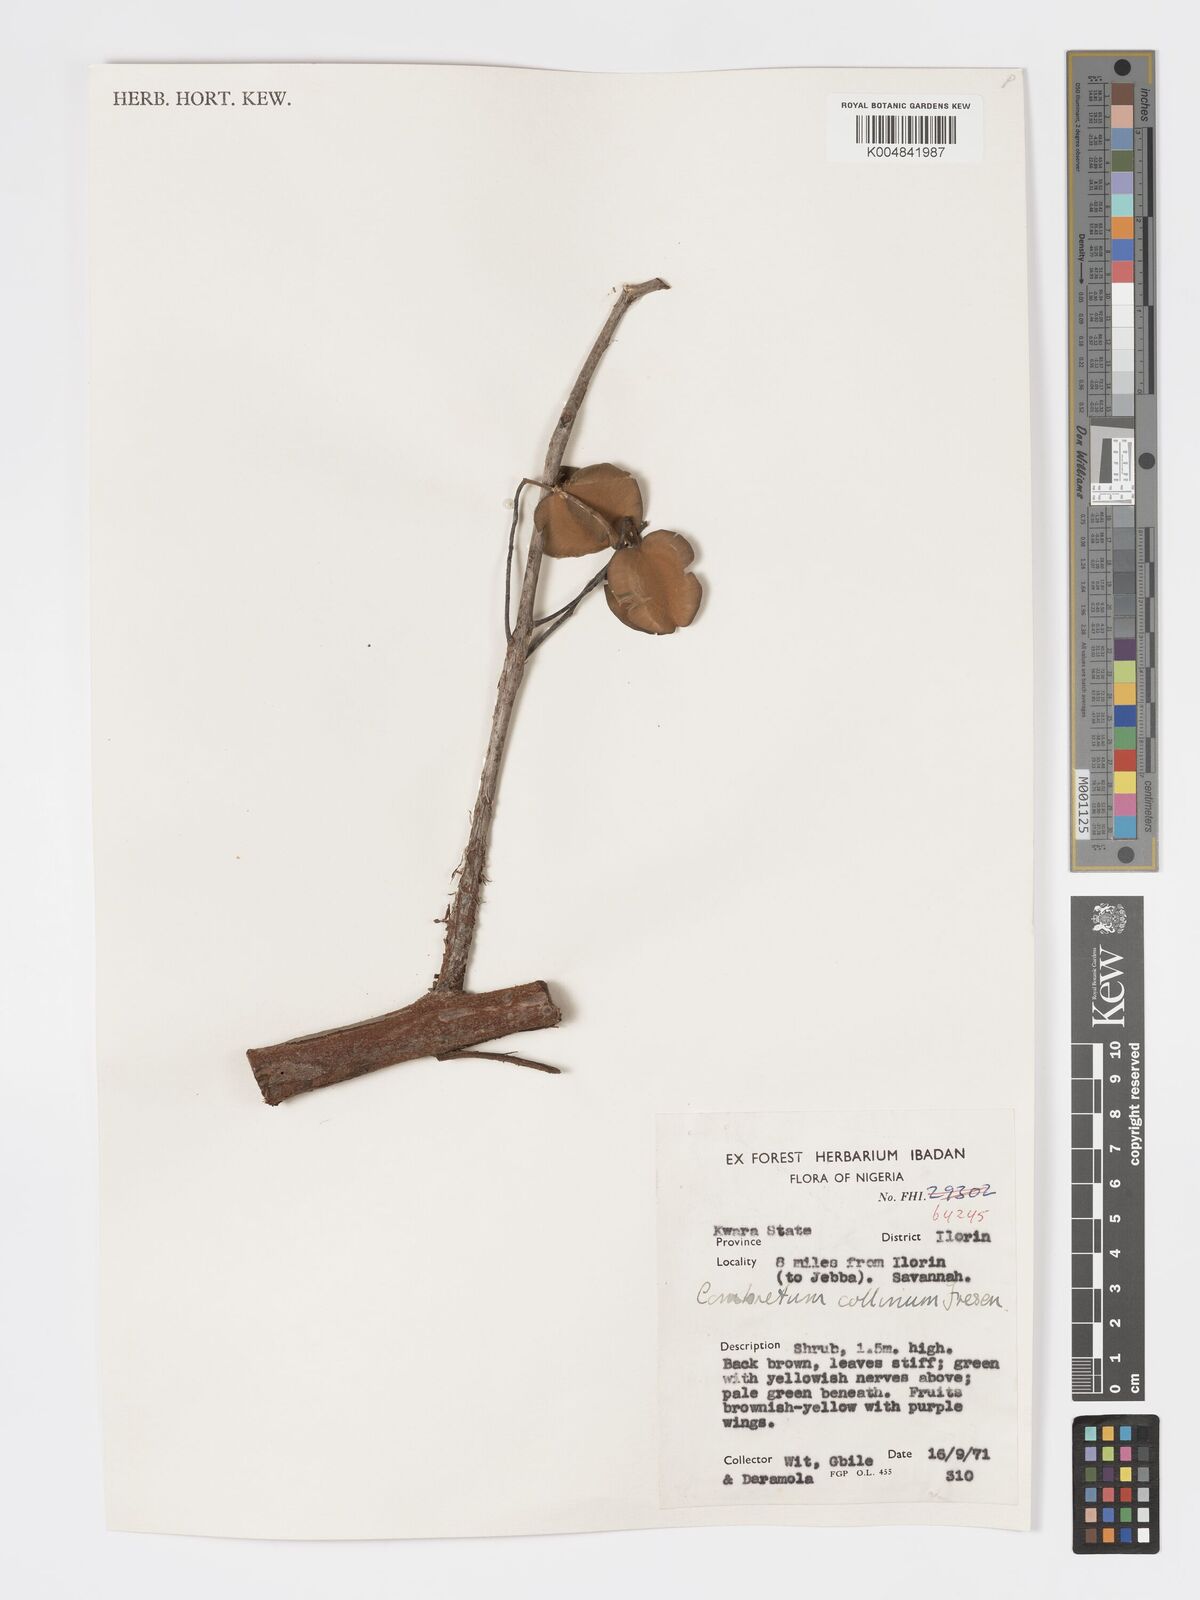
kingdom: Plantae
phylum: Tracheophyta
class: Magnoliopsida
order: Myrtales
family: Combretaceae
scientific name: Combretaceae
